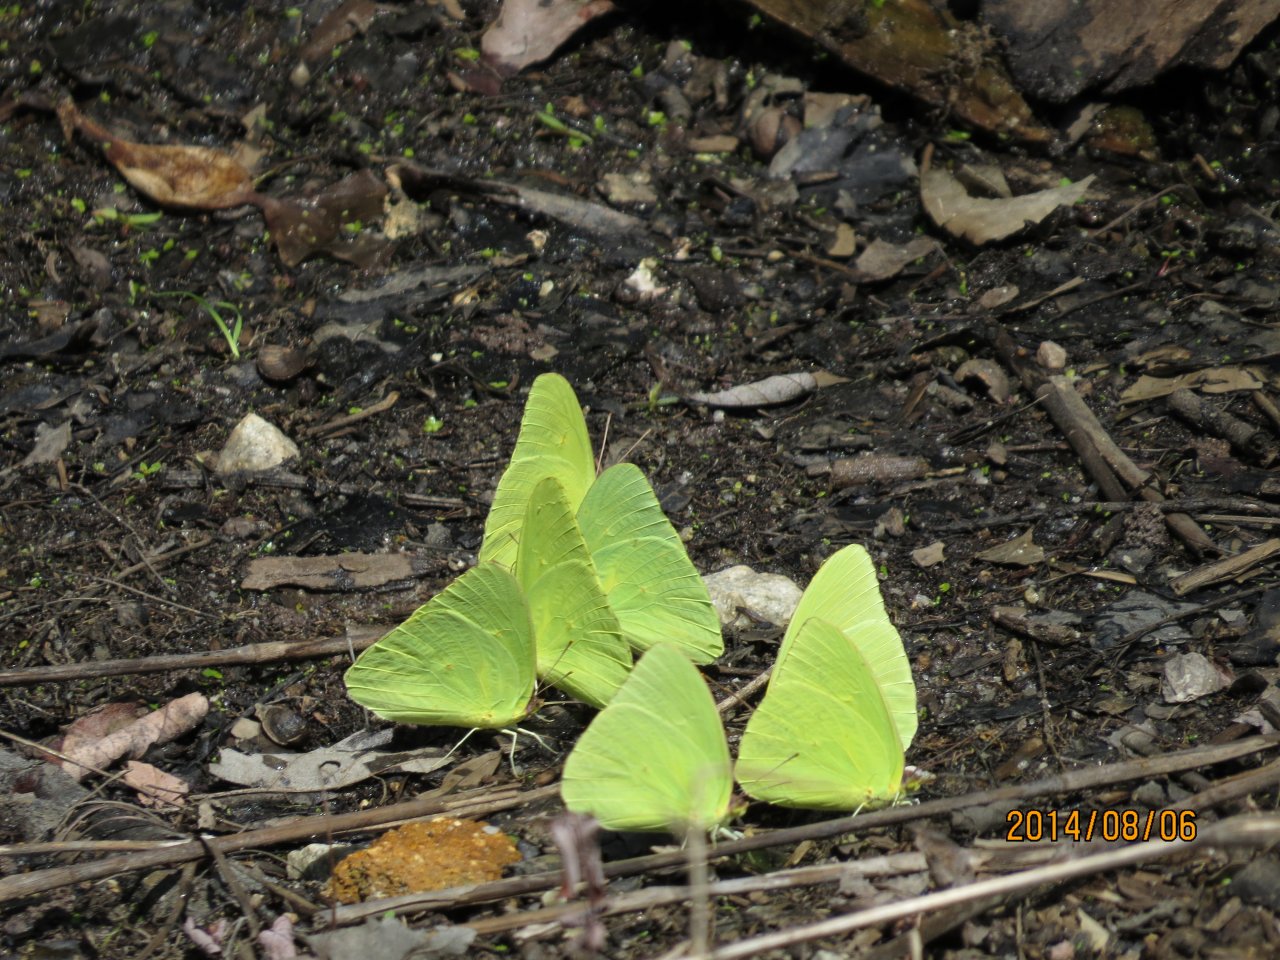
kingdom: Animalia
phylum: Arthropoda
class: Insecta
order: Lepidoptera
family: Pieridae
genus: Phoebis
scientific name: Phoebis sennae
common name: Cloudless Sulphur
